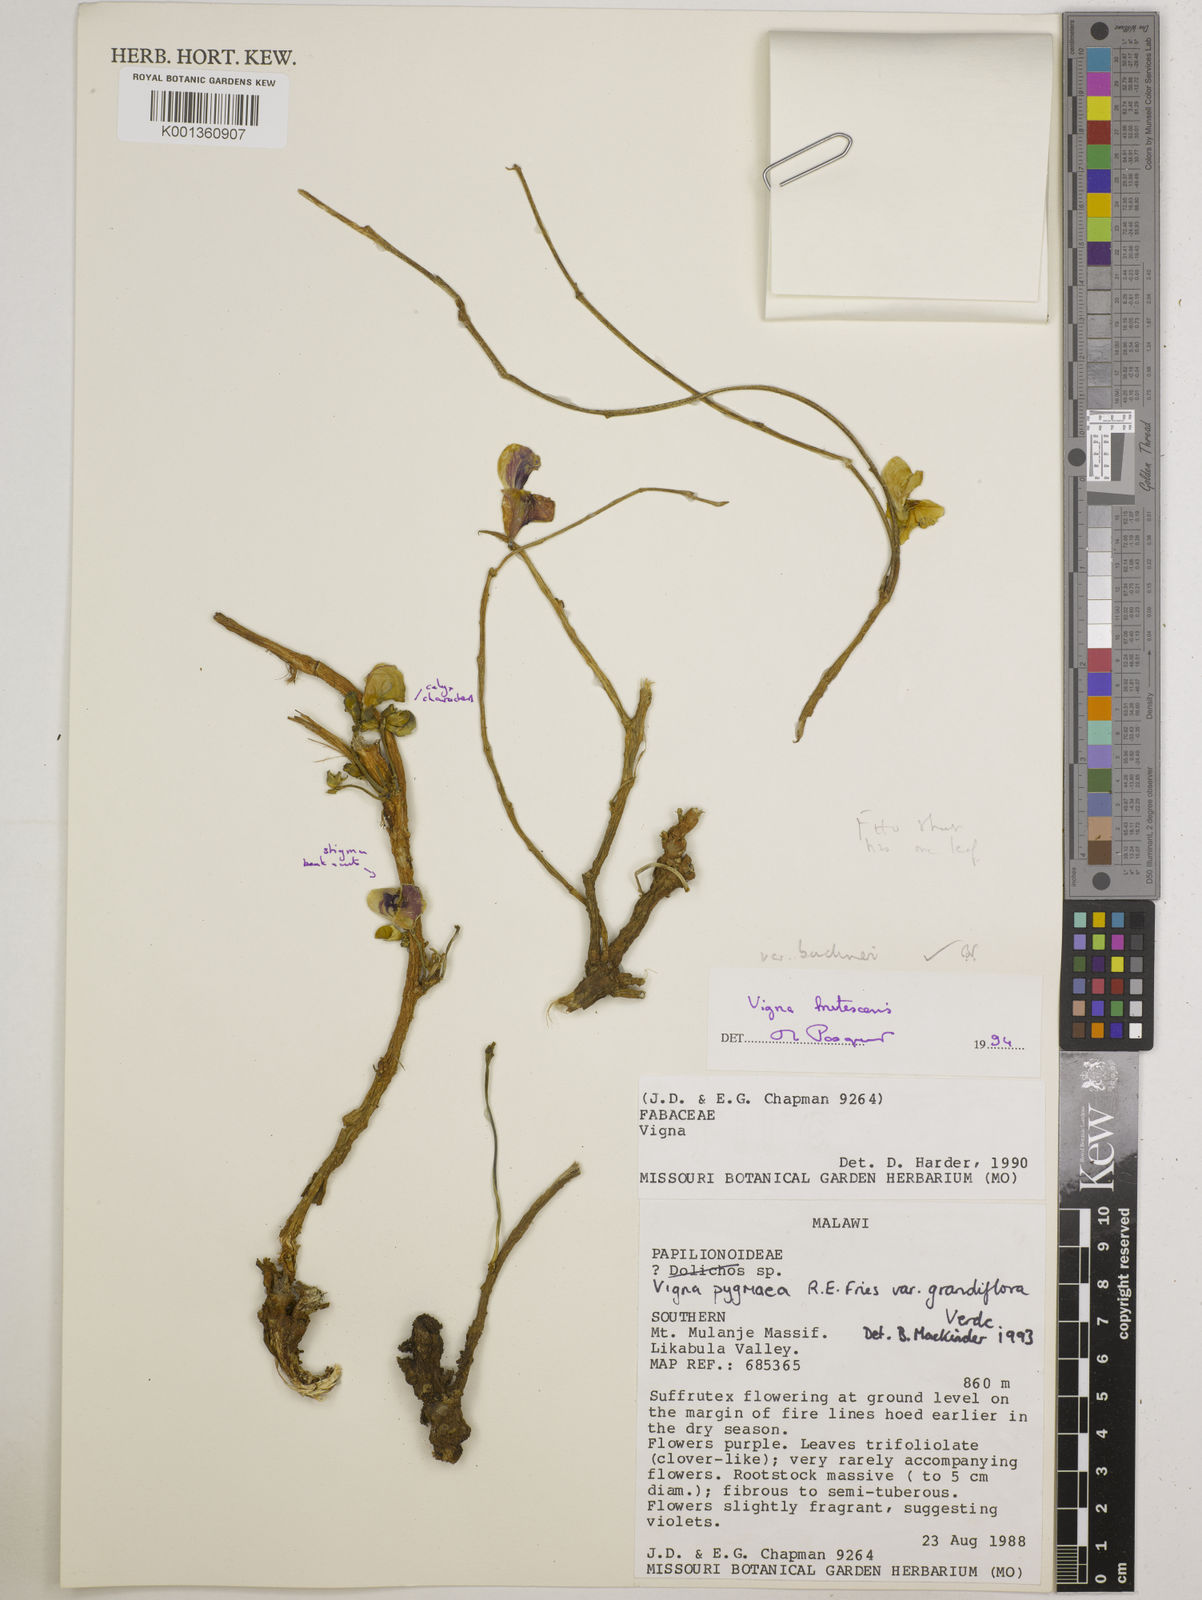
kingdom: Plantae
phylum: Tracheophyta
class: Magnoliopsida
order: Fabales
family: Fabaceae
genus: Vigna
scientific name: Vigna frutescens
